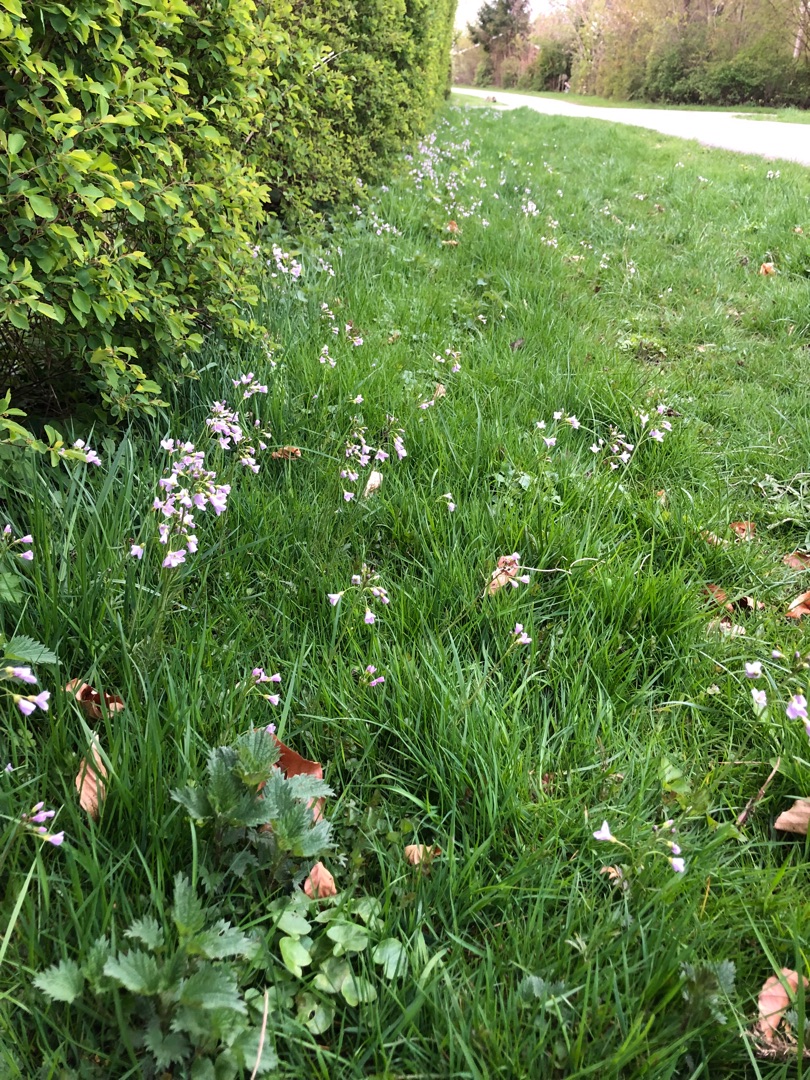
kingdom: Animalia
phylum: Arthropoda
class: Insecta
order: Lepidoptera
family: Nymphalidae
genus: Aglais
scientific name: Aglais io
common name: Dagpåfugleøje
